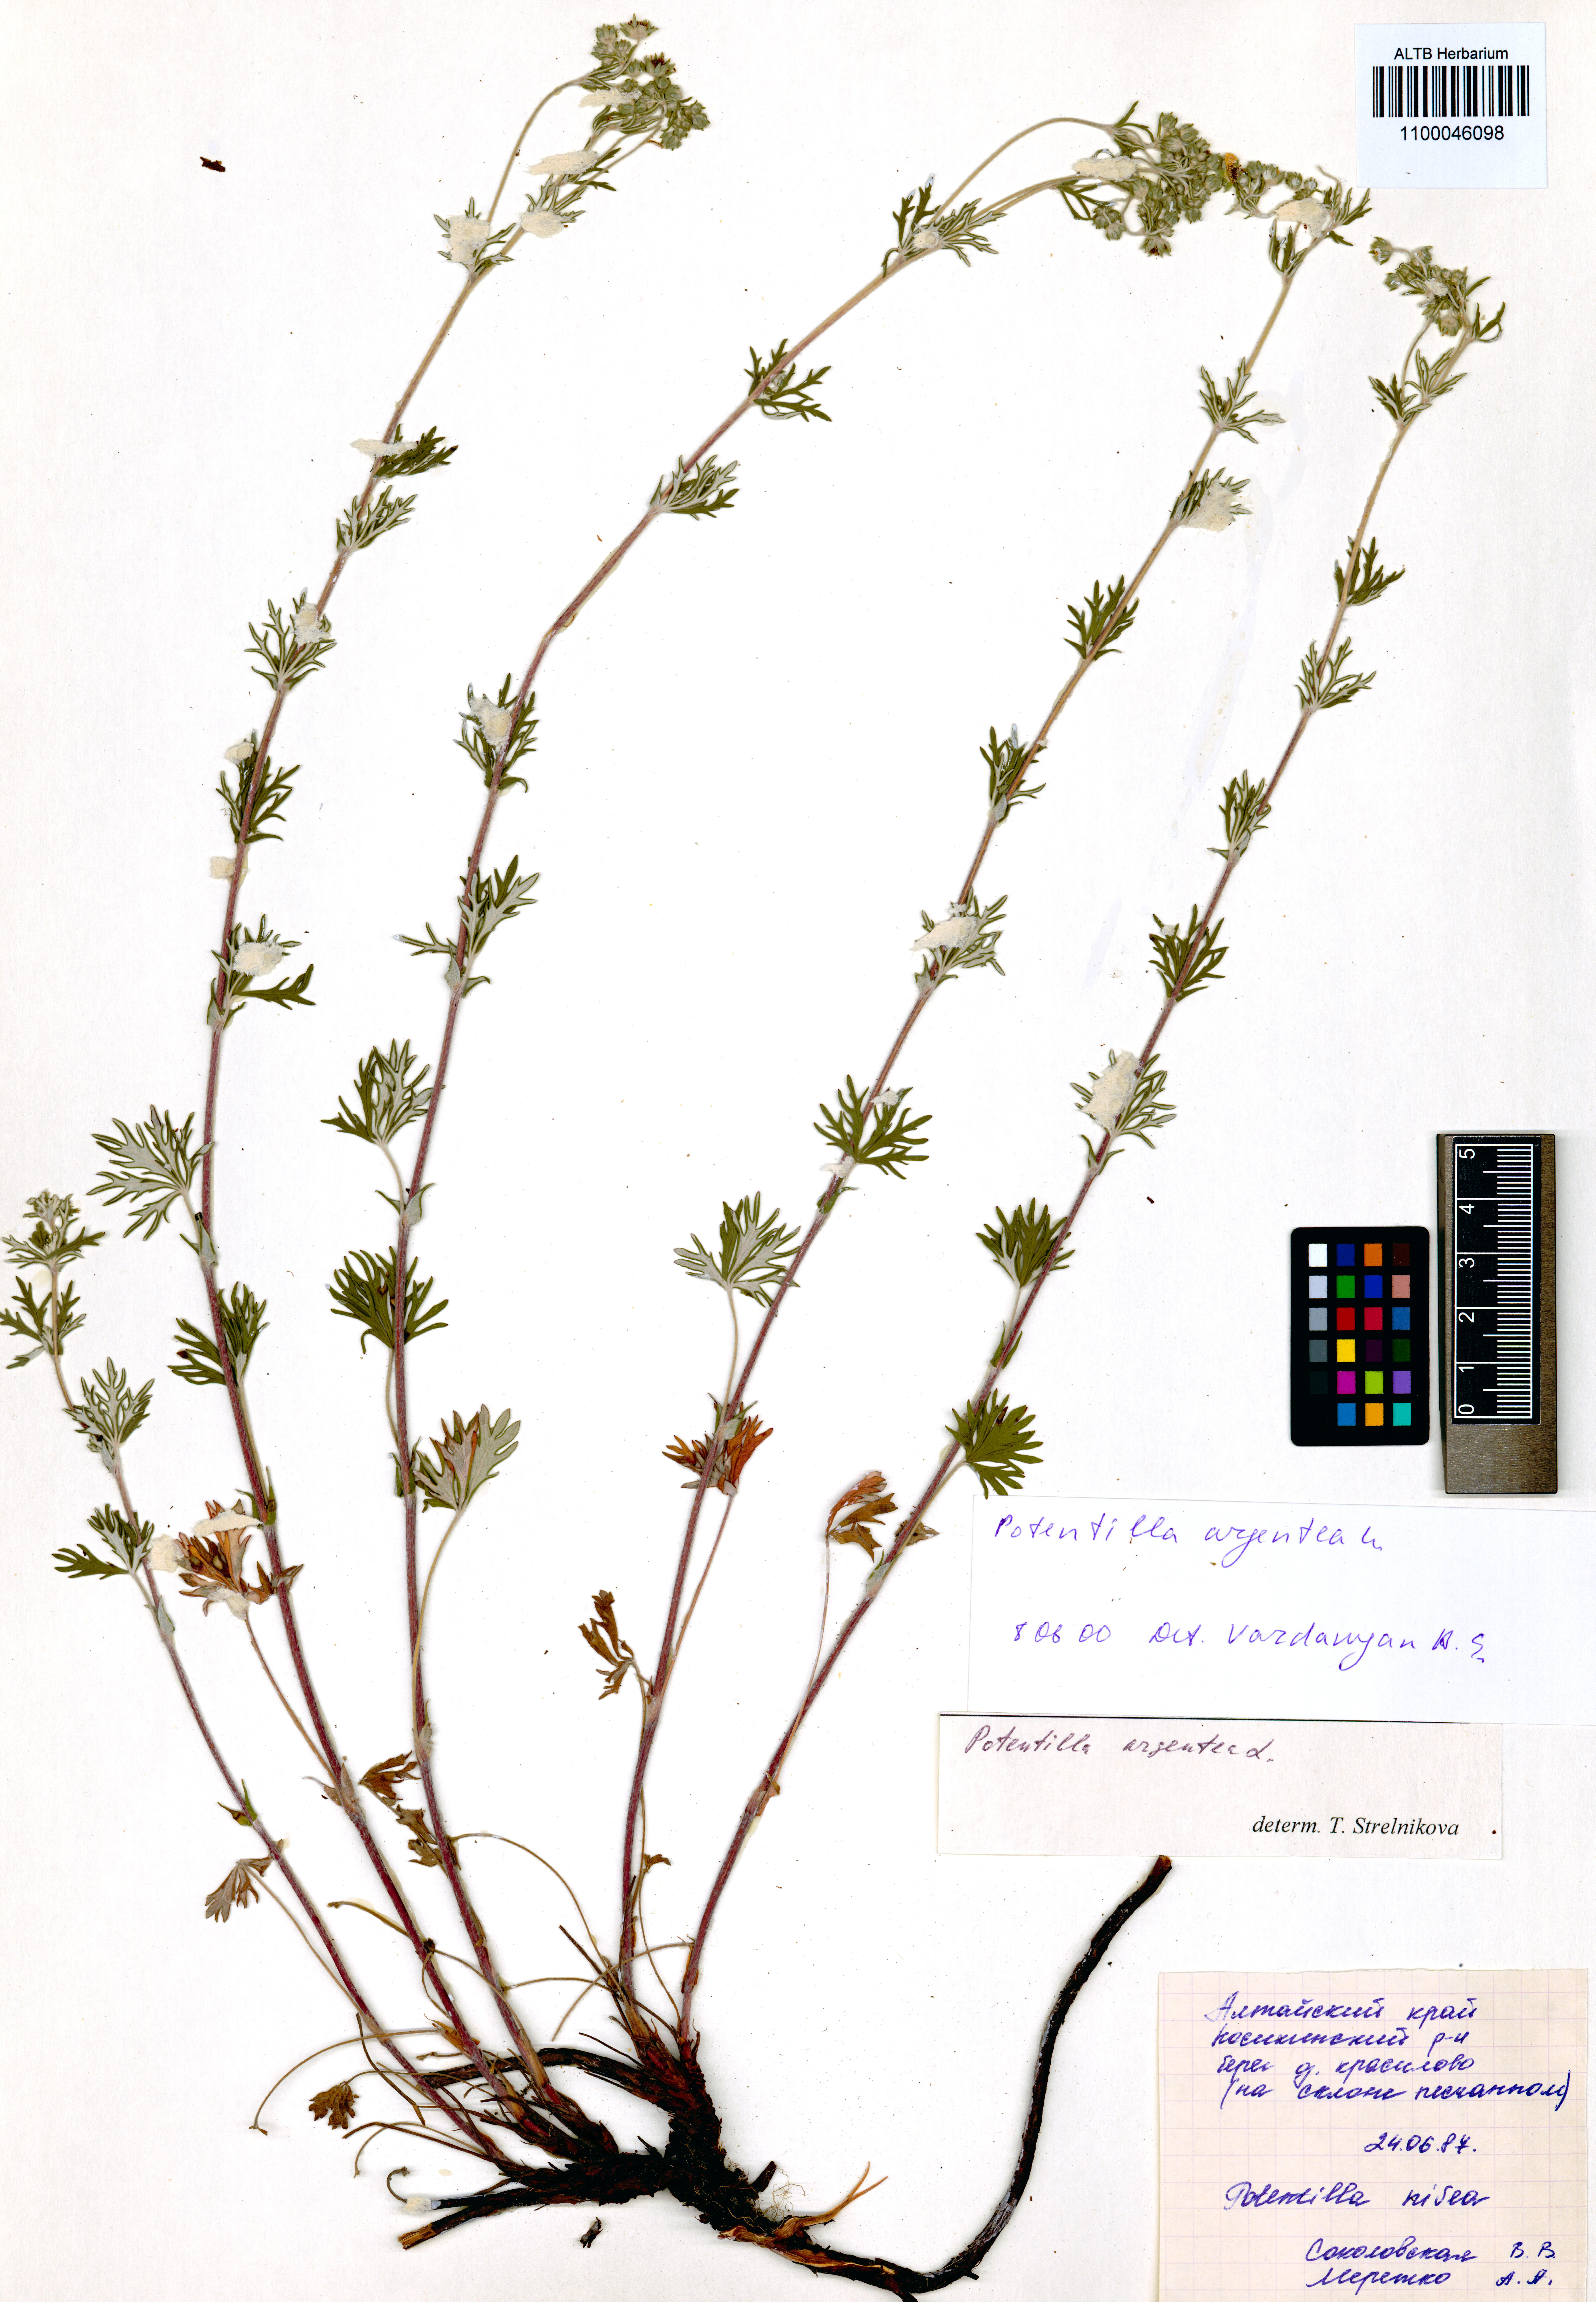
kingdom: Plantae
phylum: Tracheophyta
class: Magnoliopsida
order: Rosales
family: Rosaceae
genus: Potentilla
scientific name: Potentilla argentea
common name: Hoary cinquefoil
